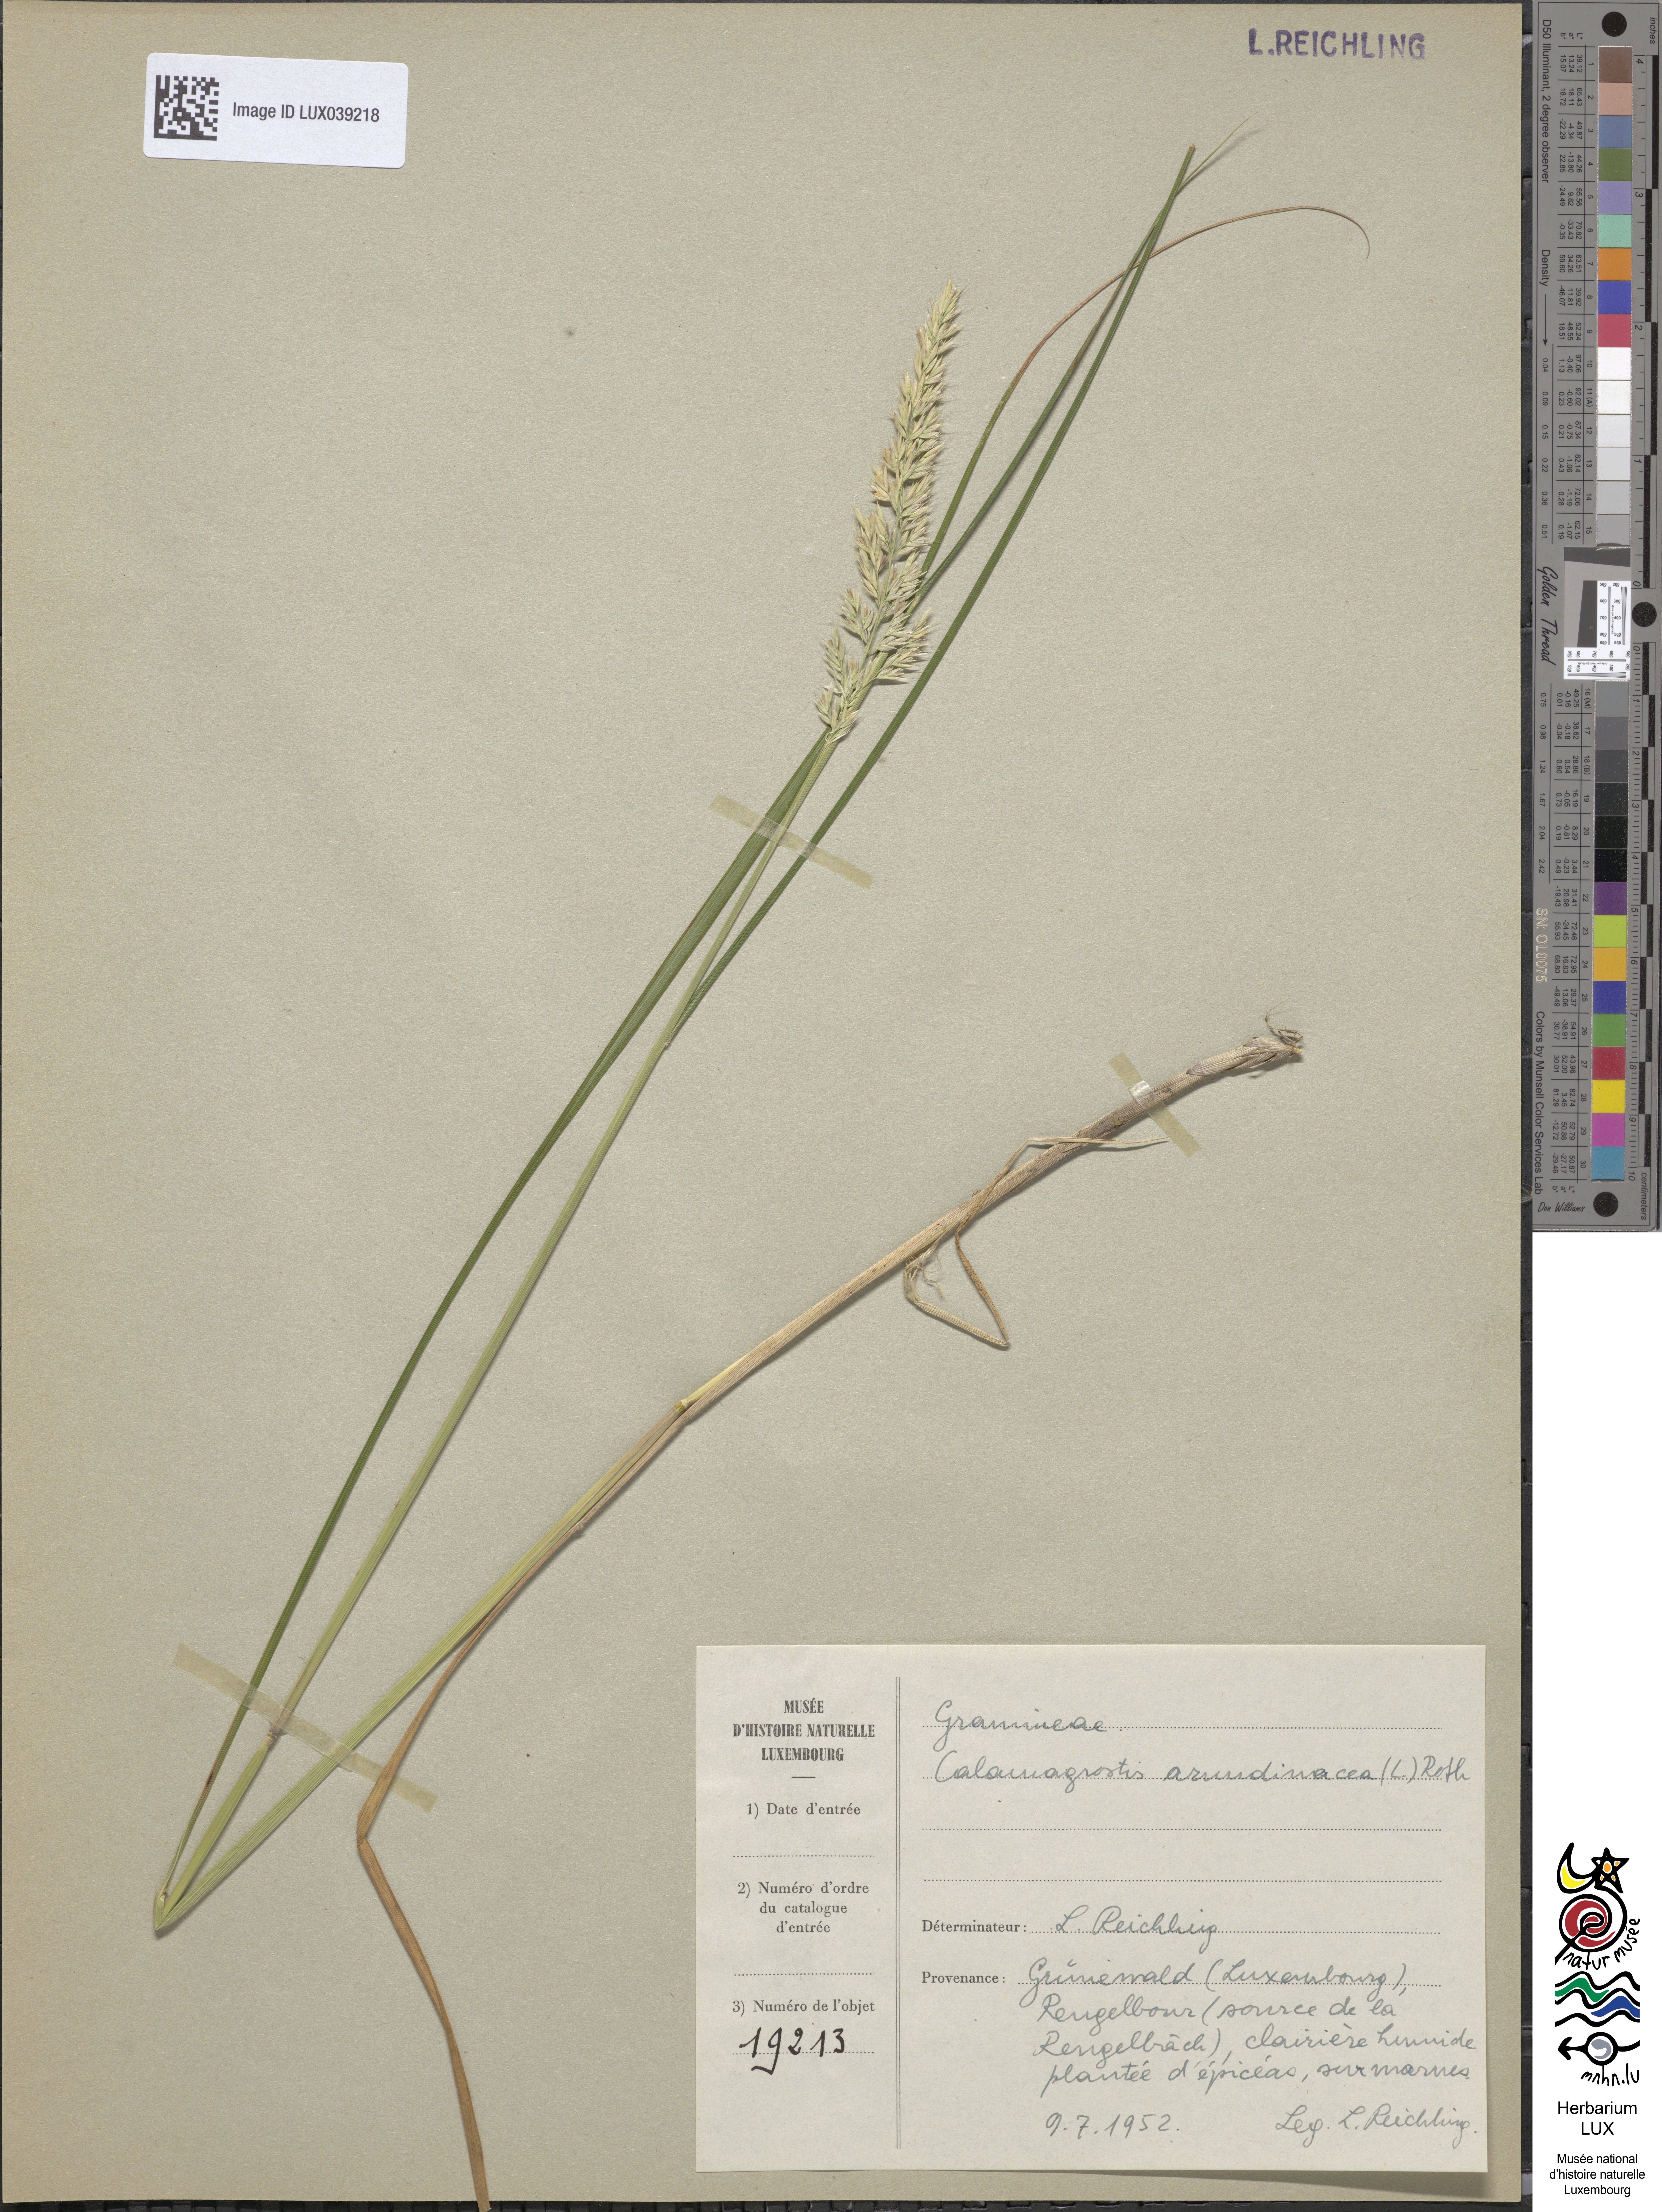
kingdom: Plantae
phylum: Tracheophyta
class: Liliopsida
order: Poales
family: Poaceae
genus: Calamagrostis
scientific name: Calamagrostis arundinacea
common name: Metskastik
